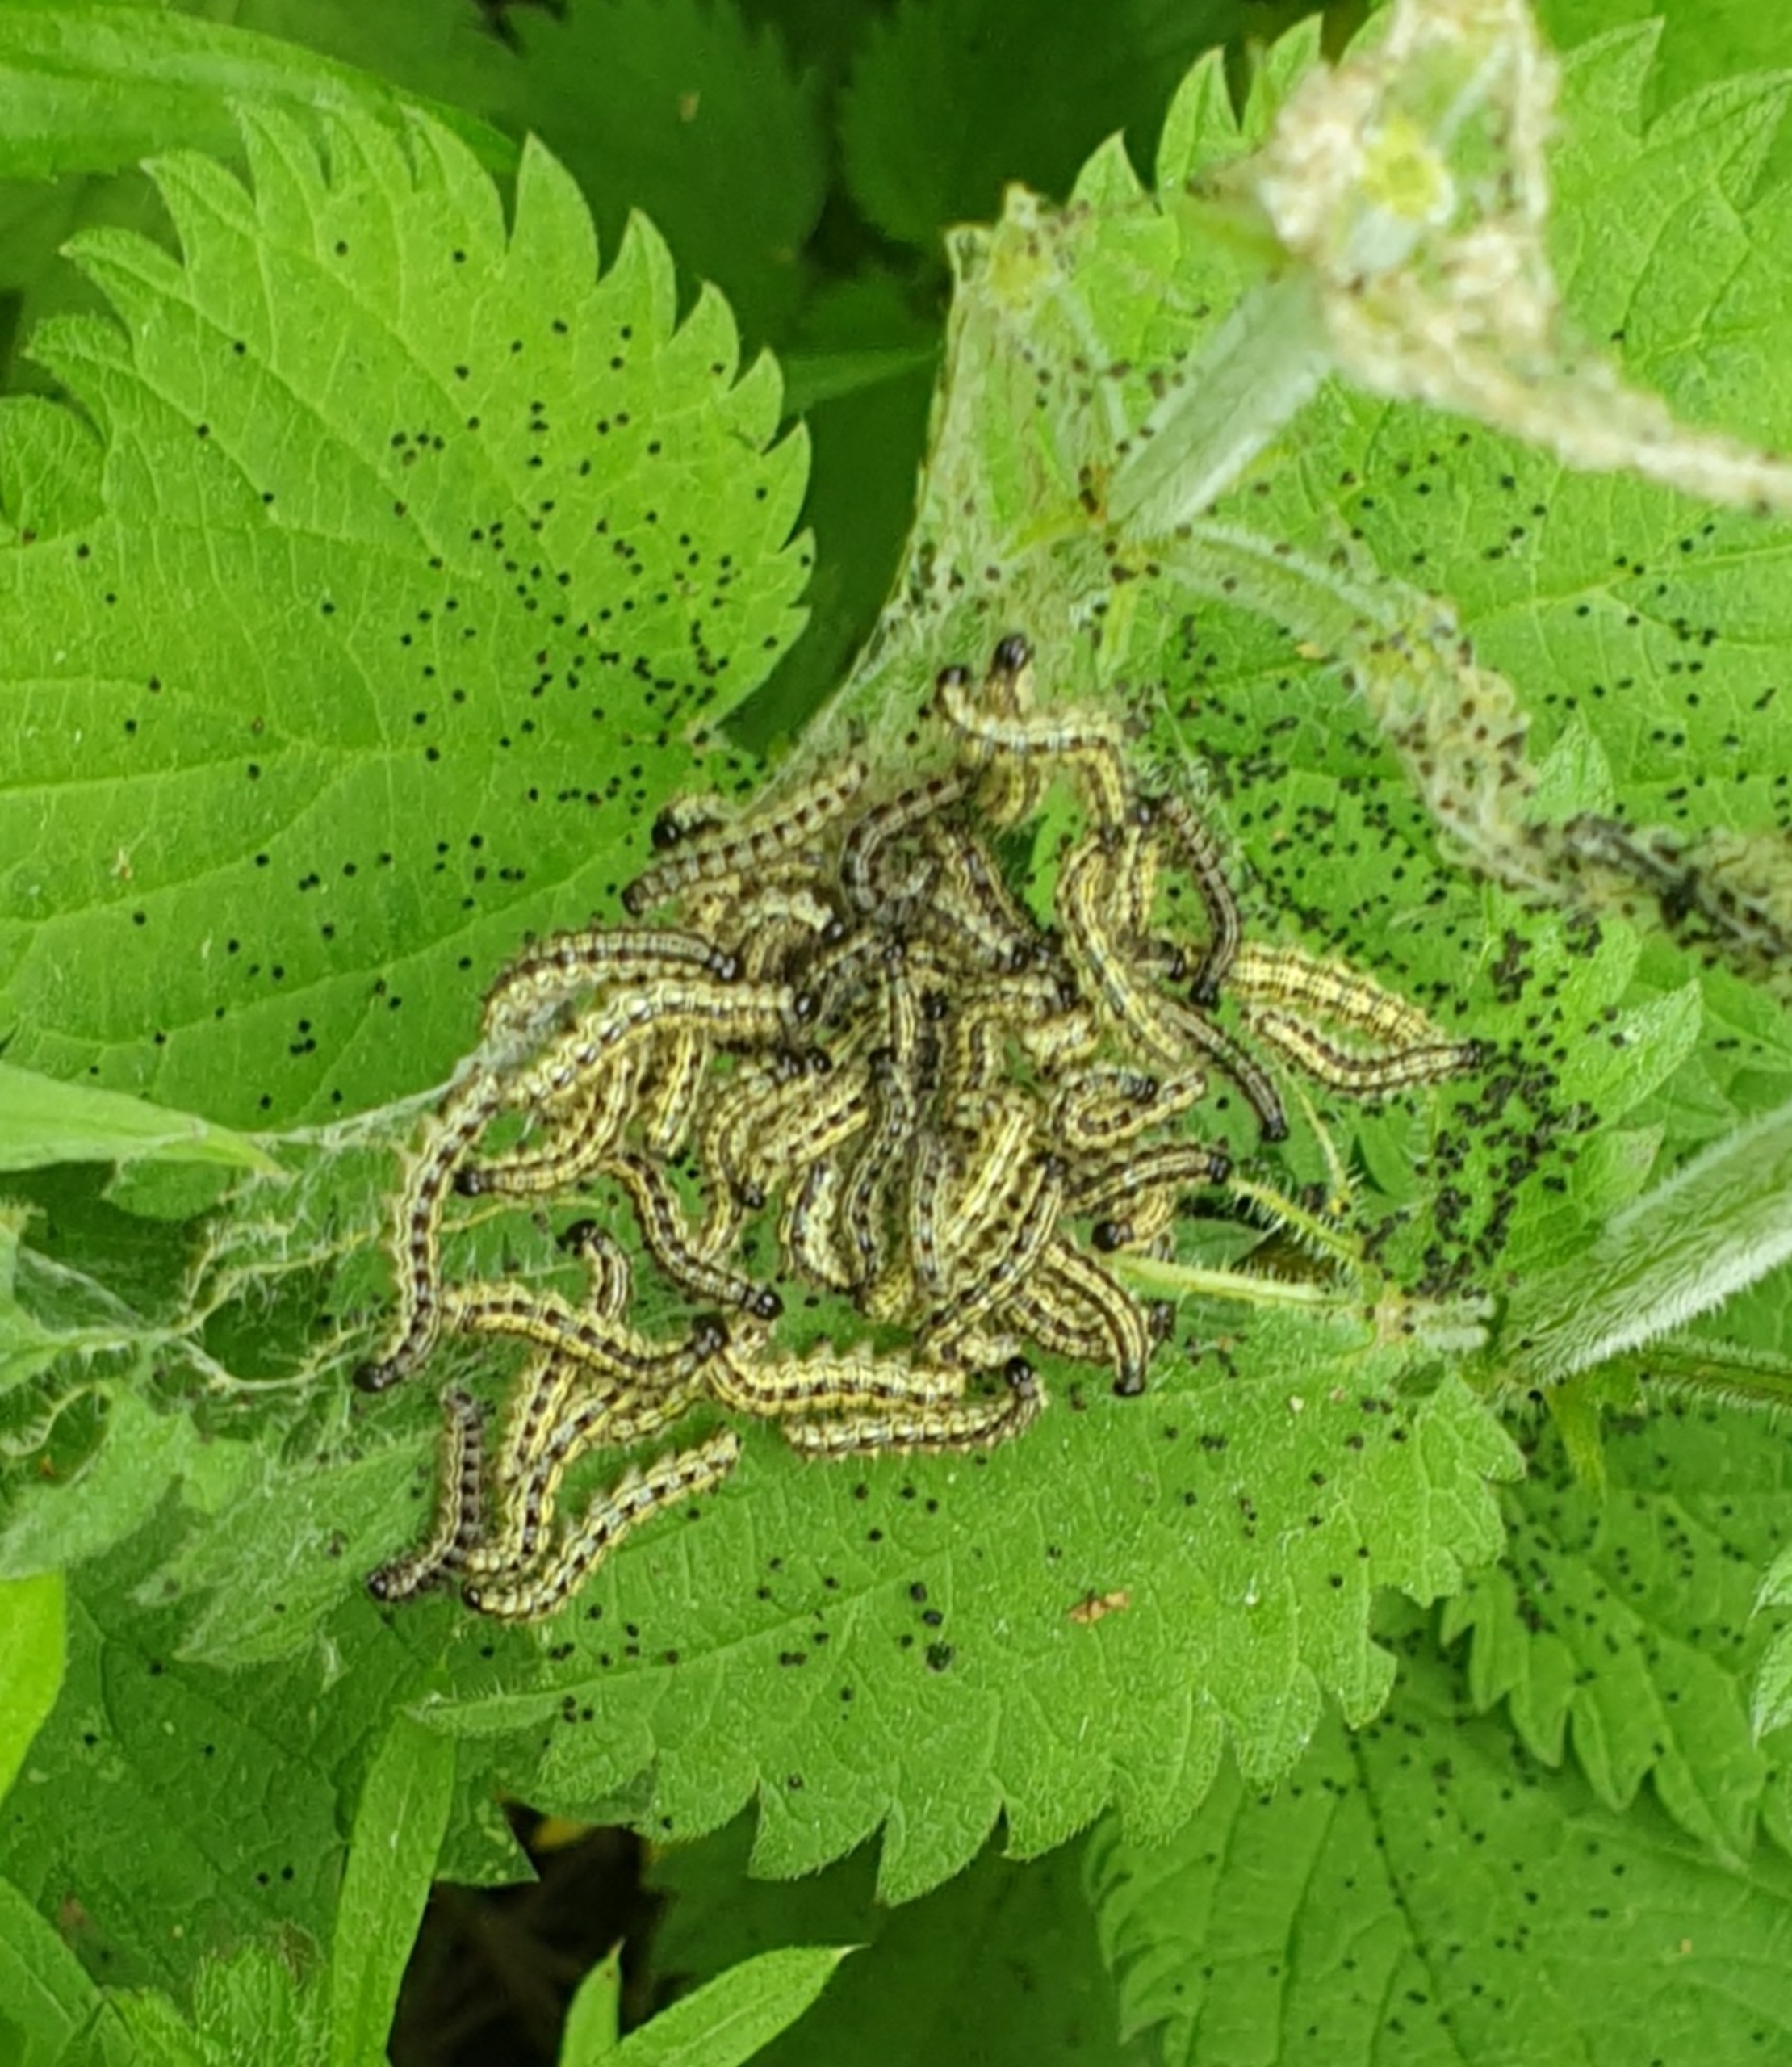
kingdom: Animalia
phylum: Arthropoda
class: Insecta
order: Lepidoptera
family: Nymphalidae
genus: Aglais
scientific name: Aglais urticae
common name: Nældens takvinge
